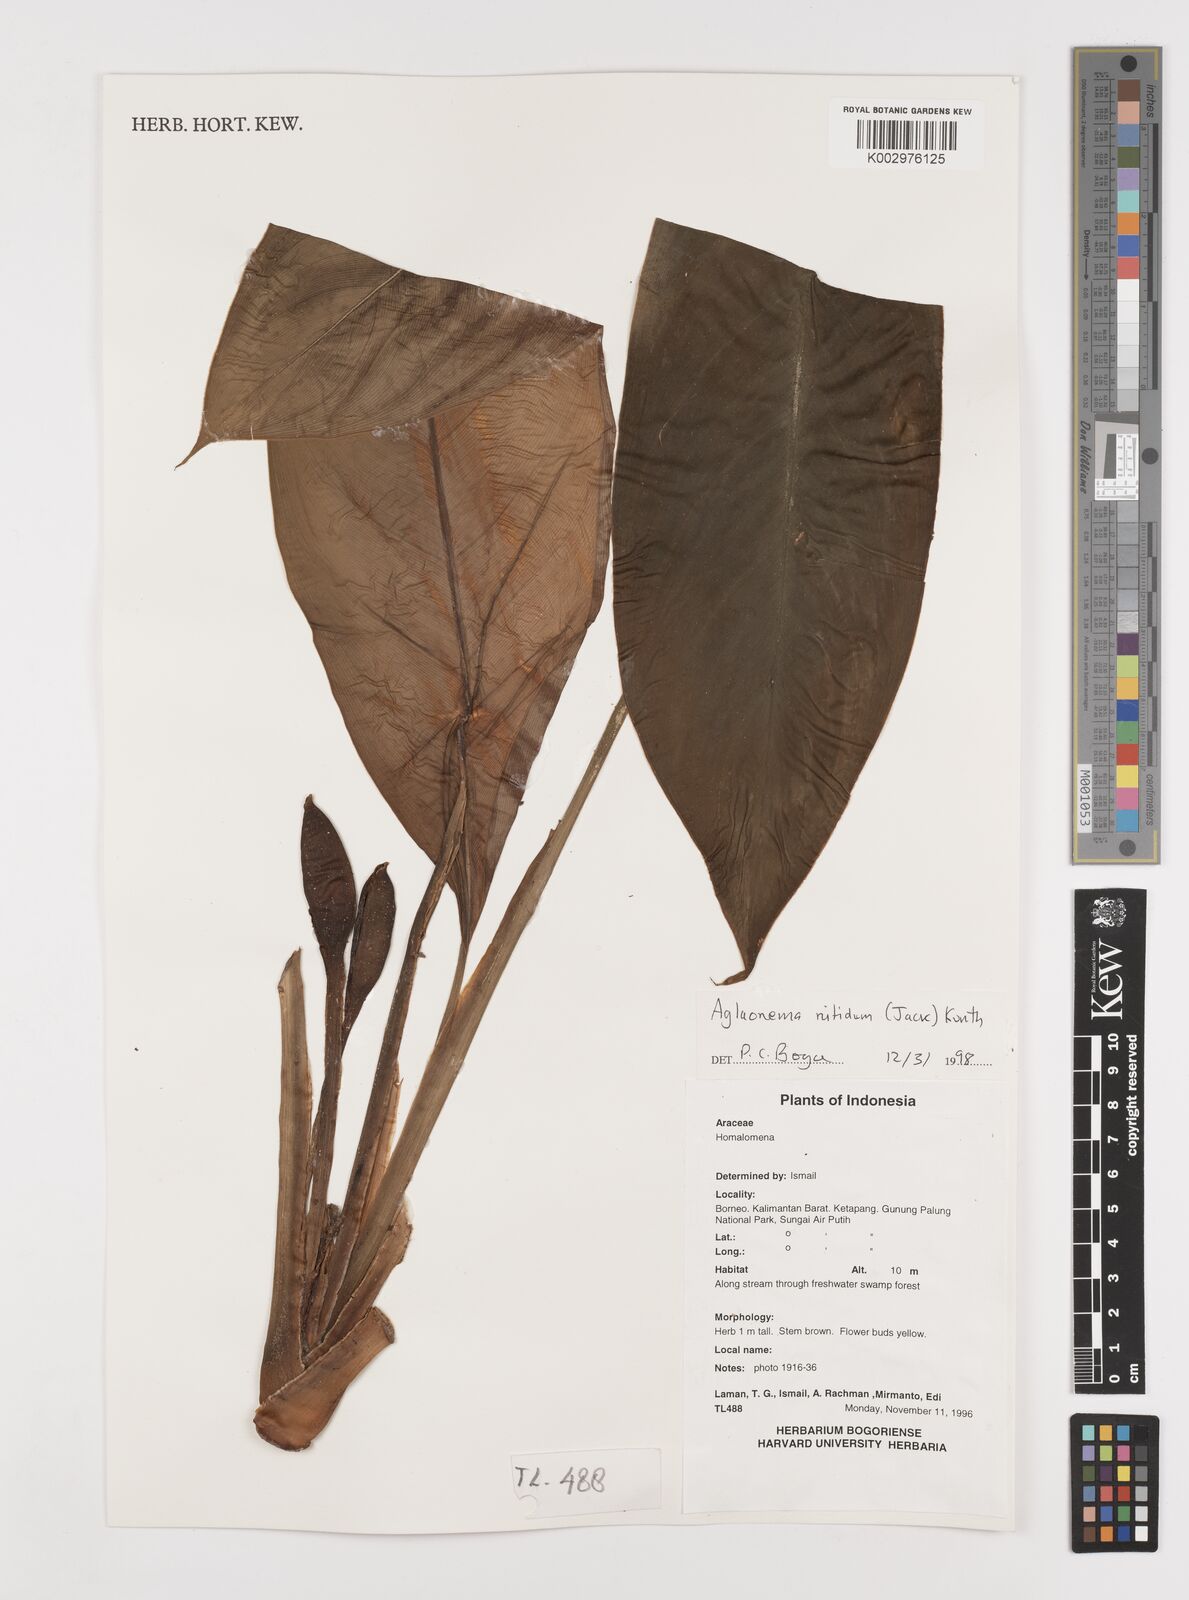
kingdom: Plantae
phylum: Tracheophyta
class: Liliopsida
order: Alismatales
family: Araceae
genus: Aglaonema
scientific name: Aglaonema nitidum
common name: Aglaonema aroid
